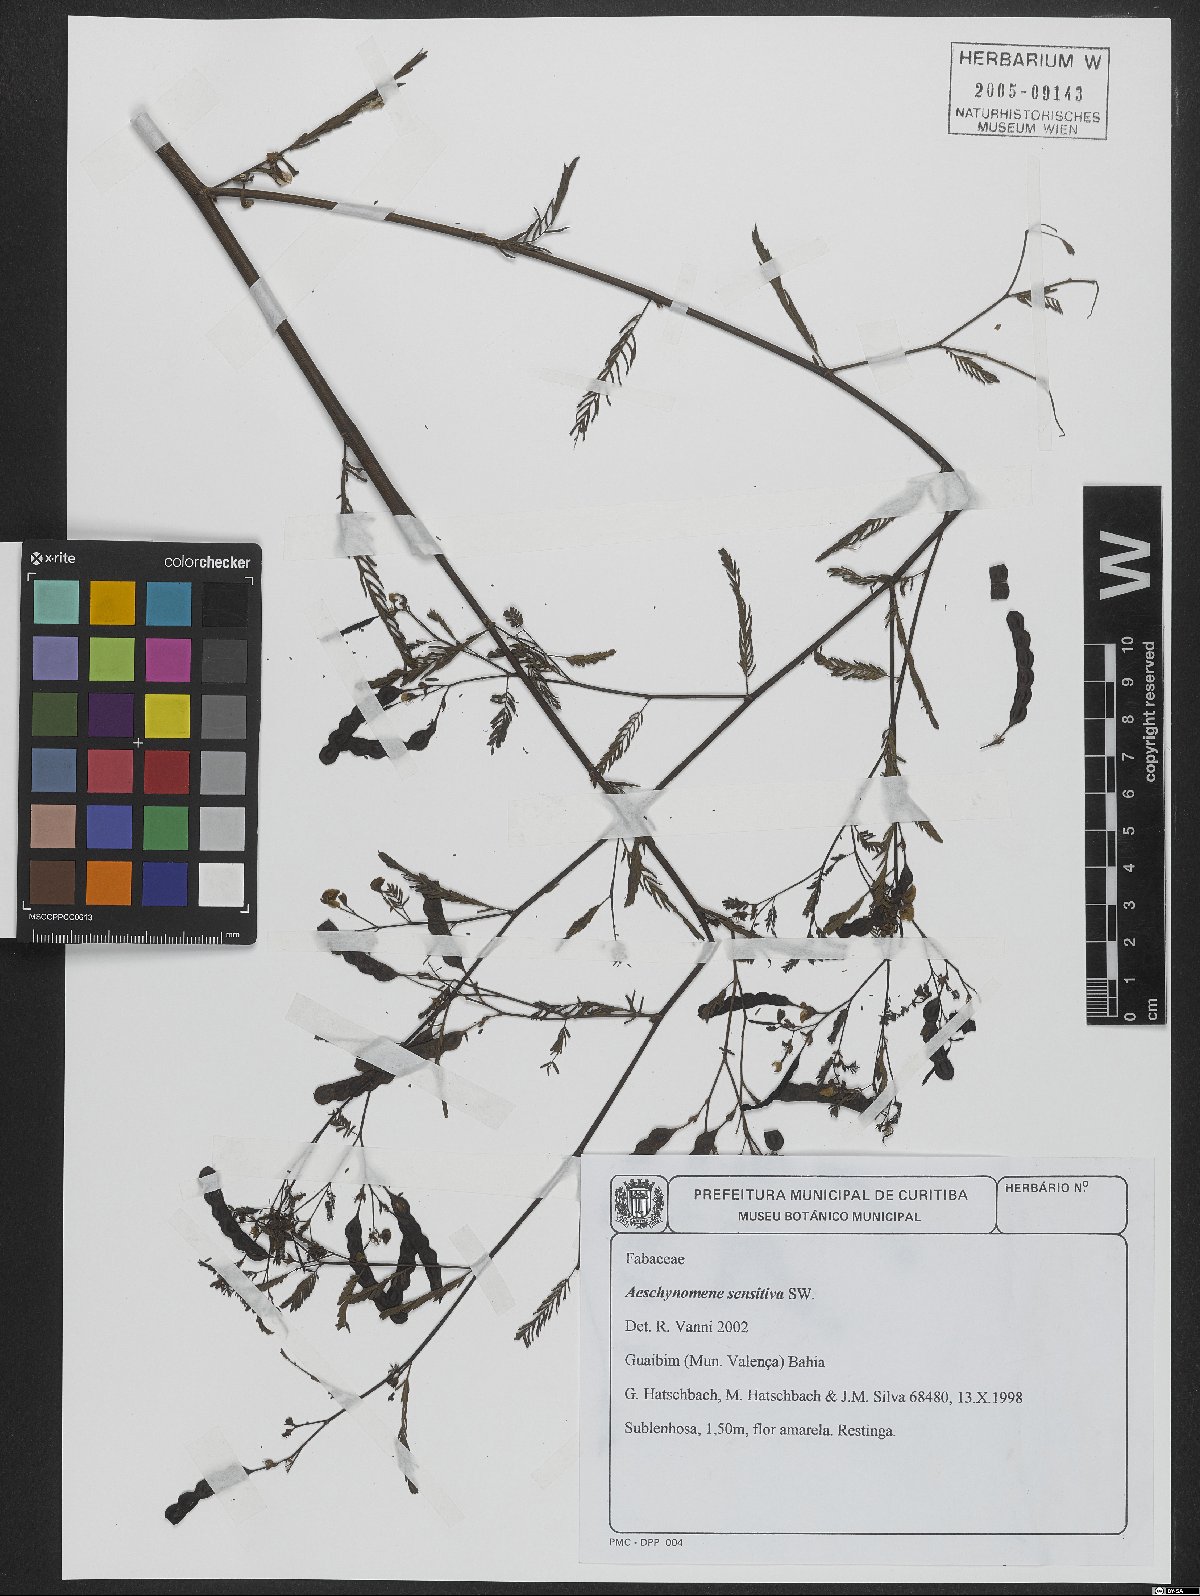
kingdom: Plantae
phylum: Tracheophyta
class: Magnoliopsida
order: Fabales
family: Fabaceae
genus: Aeschynomene
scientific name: Aeschynomene sensitiva
